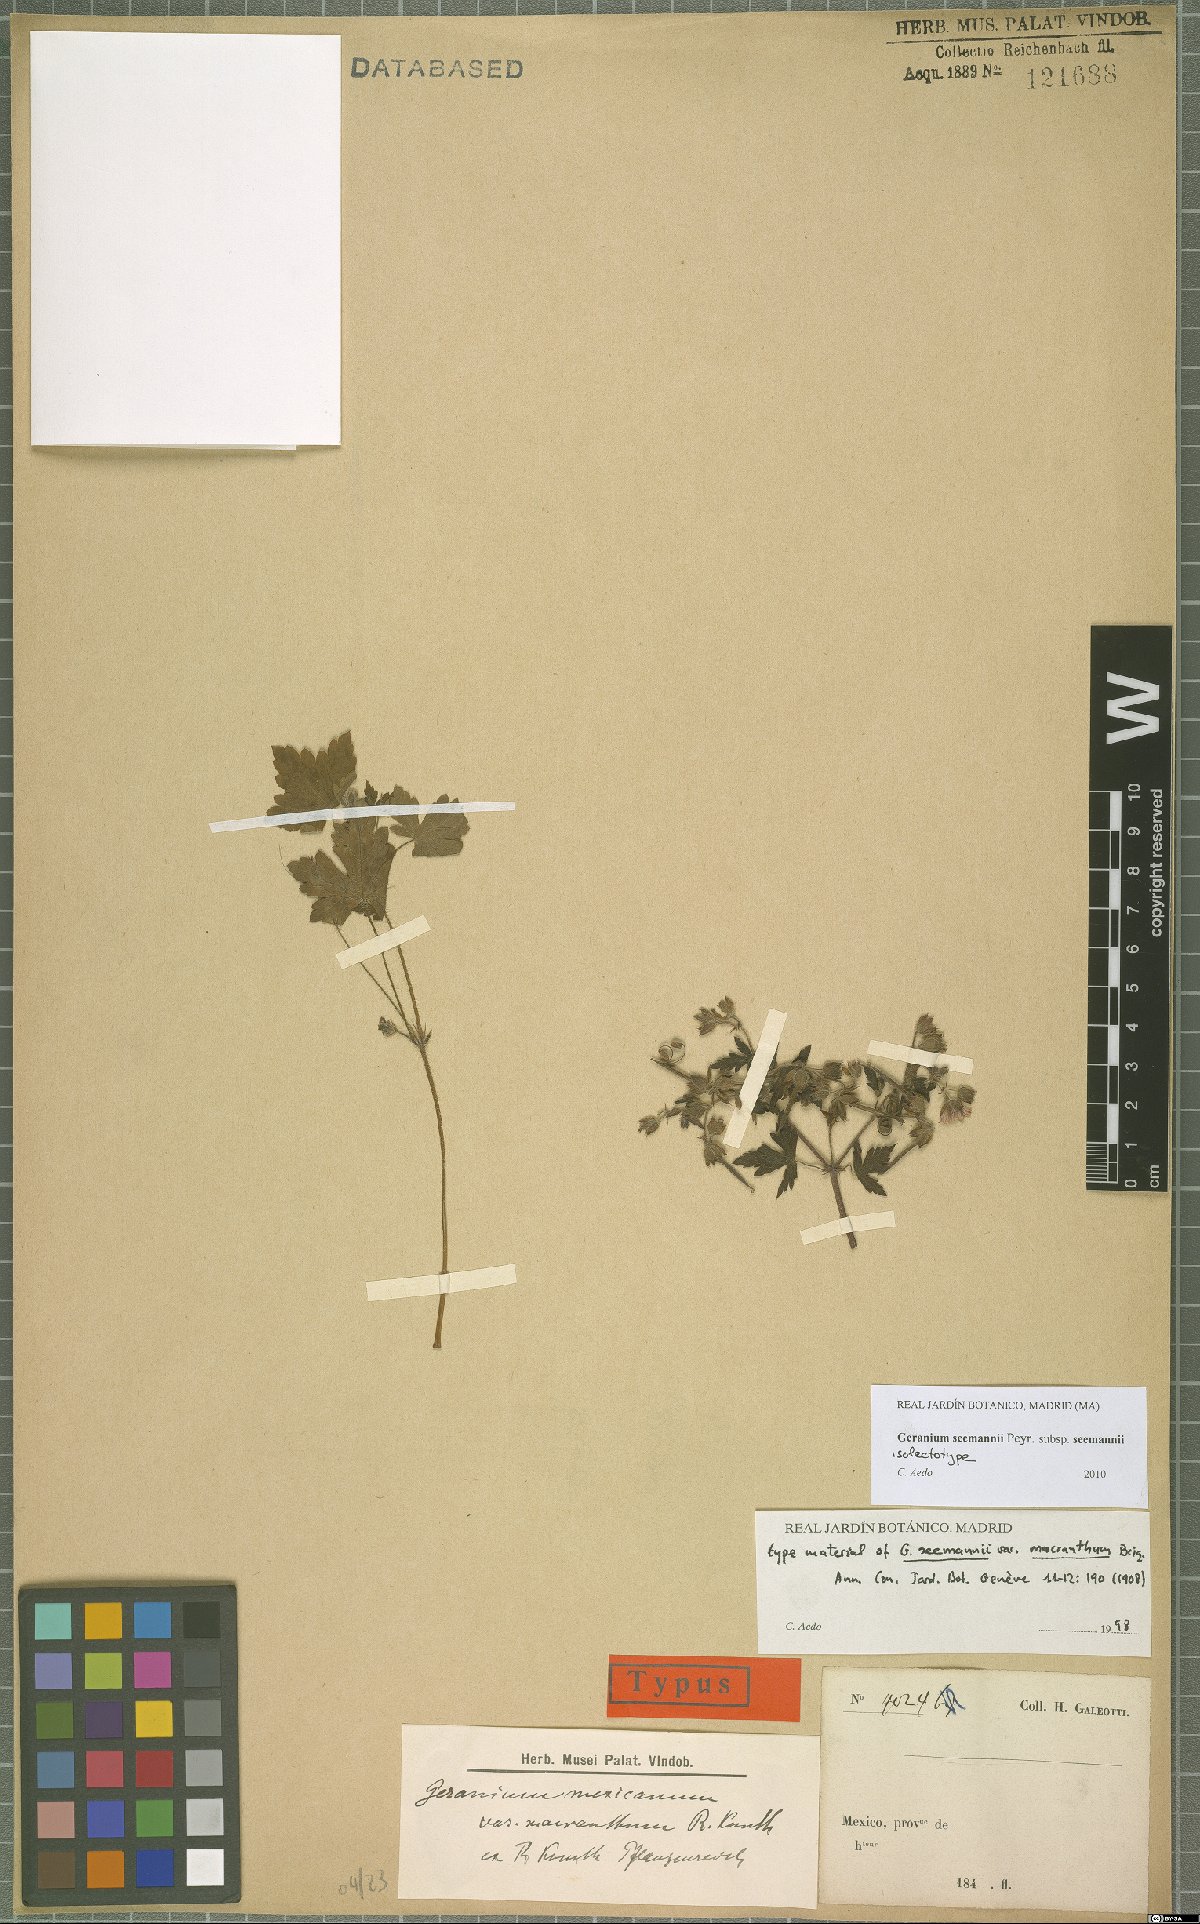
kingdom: Plantae
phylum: Tracheophyta
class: Magnoliopsida
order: Geraniales
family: Geraniaceae
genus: Geranium
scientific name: Geranium seemannii
